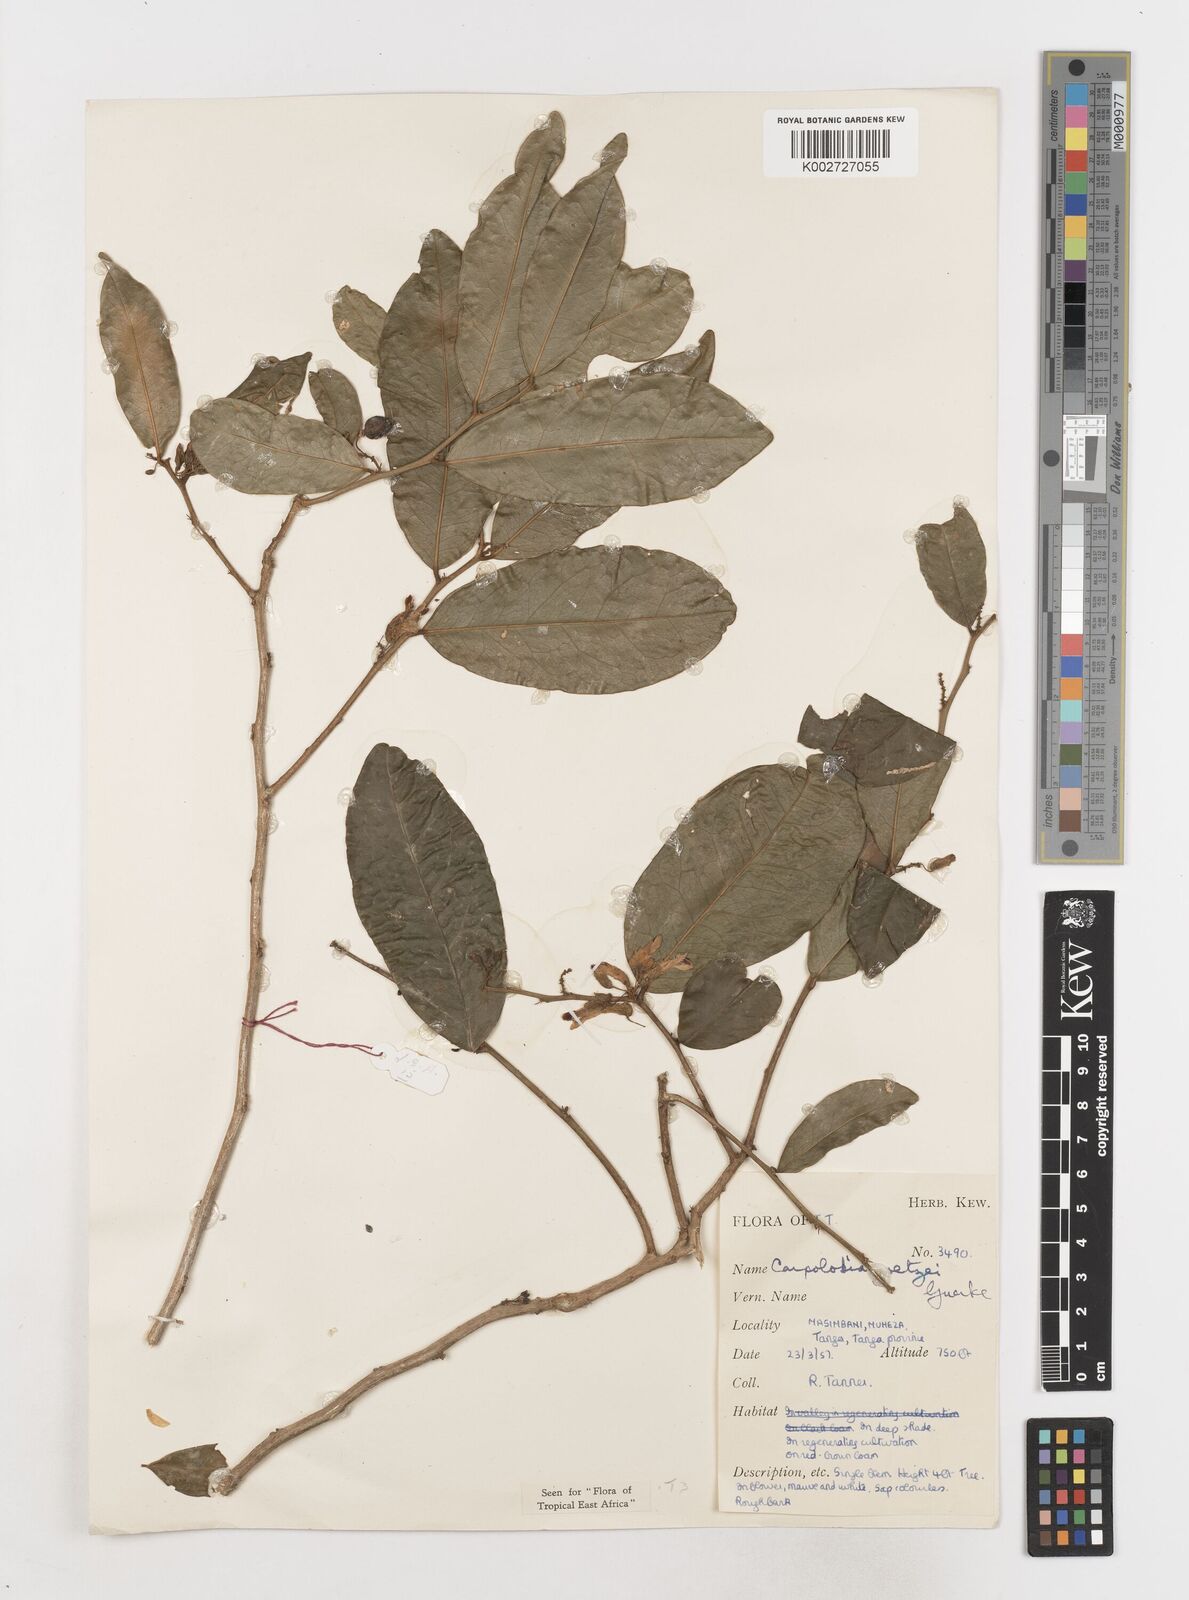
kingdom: Plantae
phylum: Tracheophyta
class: Magnoliopsida
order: Fabales
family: Polygalaceae
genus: Carpolobia
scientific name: Carpolobia goetzei
